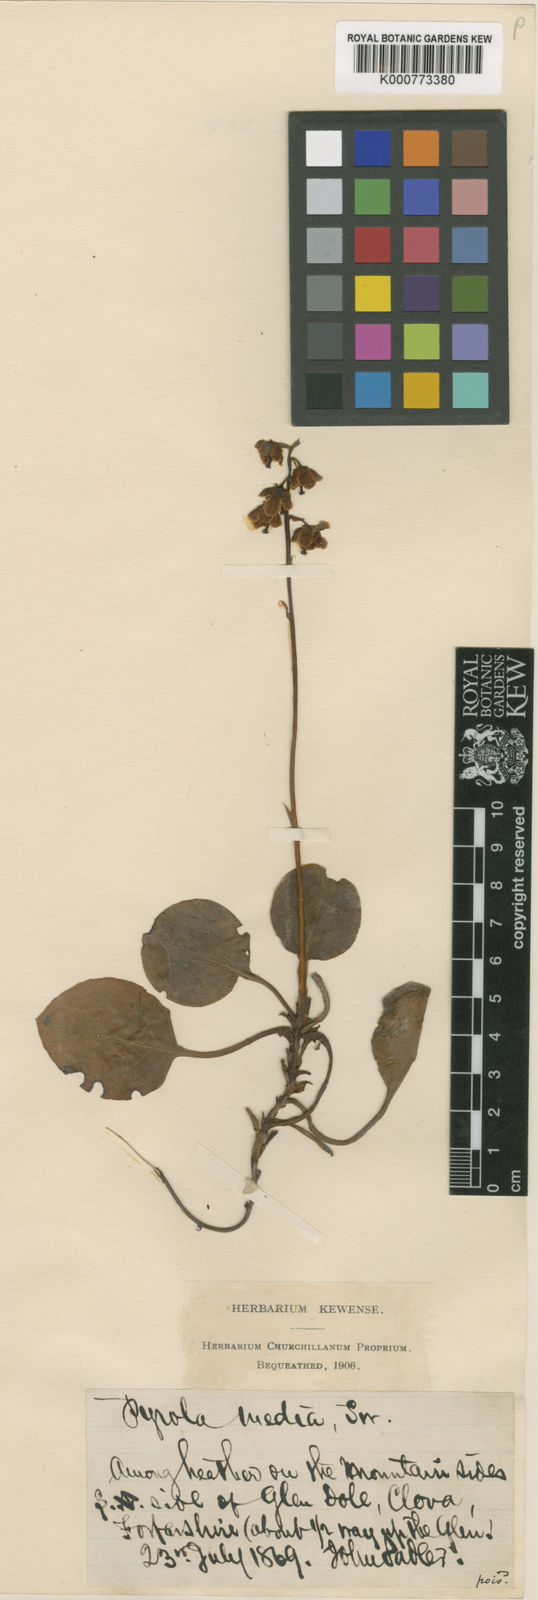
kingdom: Plantae
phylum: Tracheophyta
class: Magnoliopsida
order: Ericales
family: Ericaceae
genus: Pyrola
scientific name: Pyrola media
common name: Intermediate wintergreen
